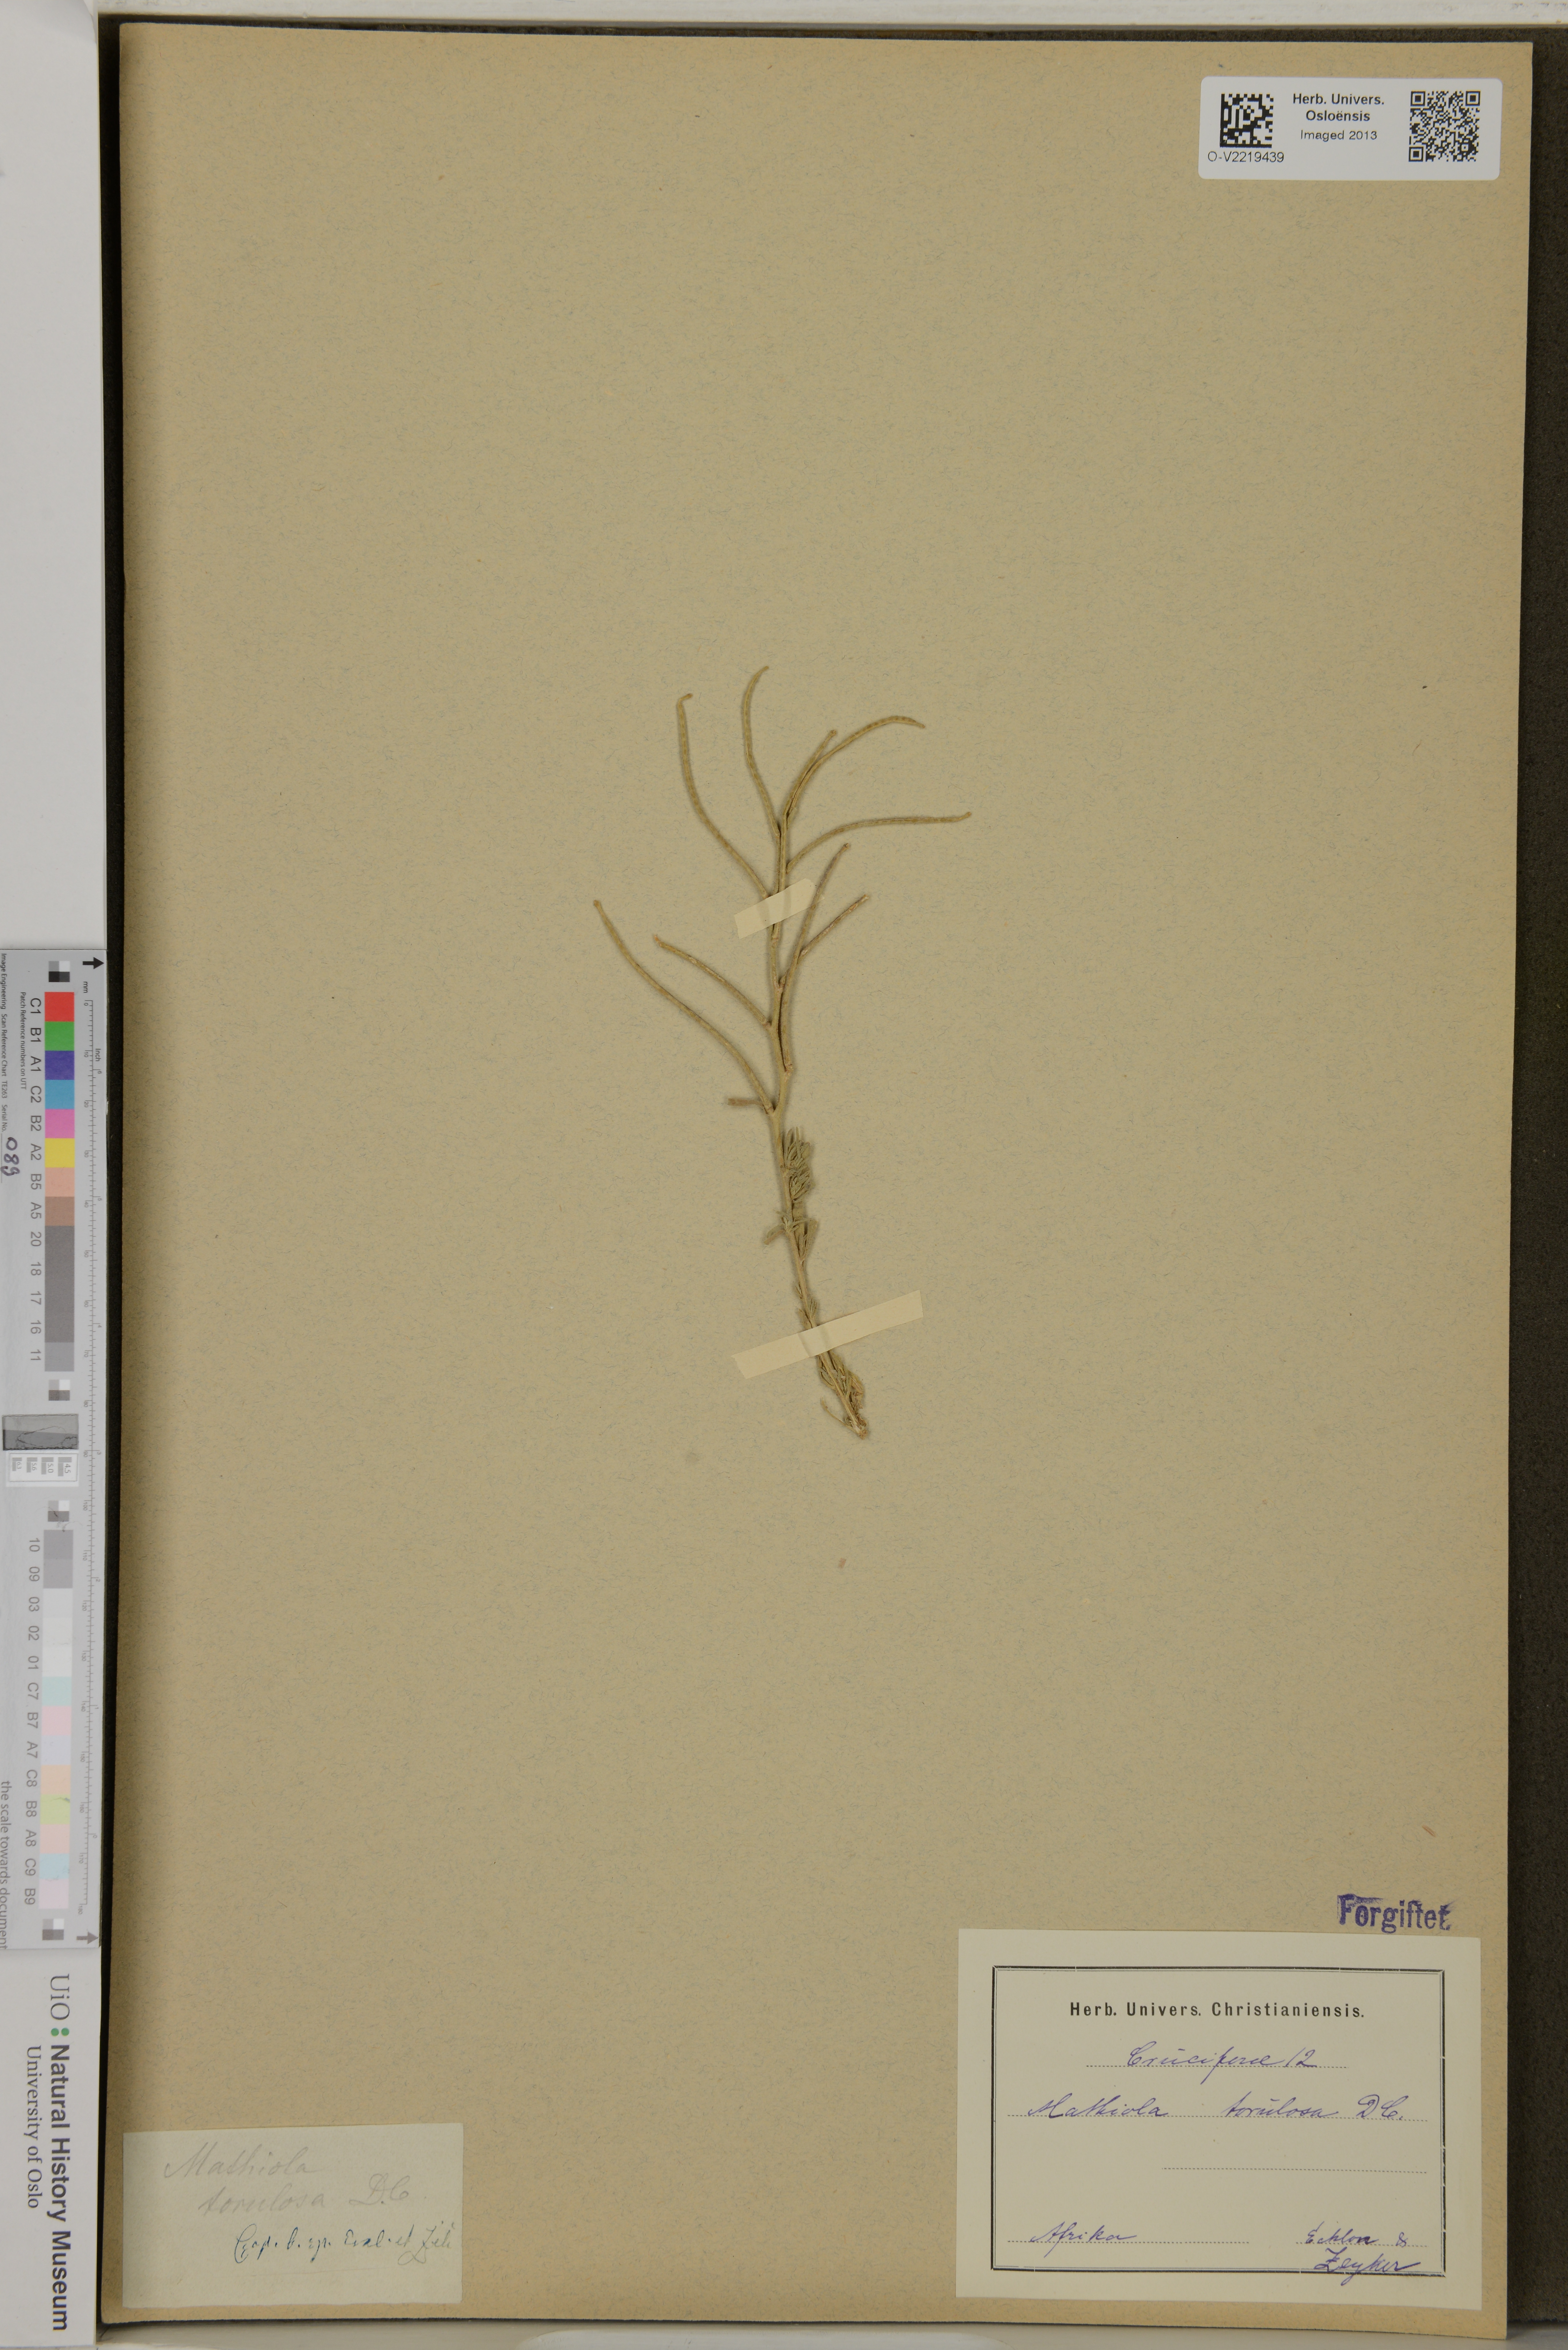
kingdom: Plantae
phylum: Tracheophyta
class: Magnoliopsida
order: Brassicales
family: Brassicaceae
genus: Matthiola
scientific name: Matthiola torulosa
